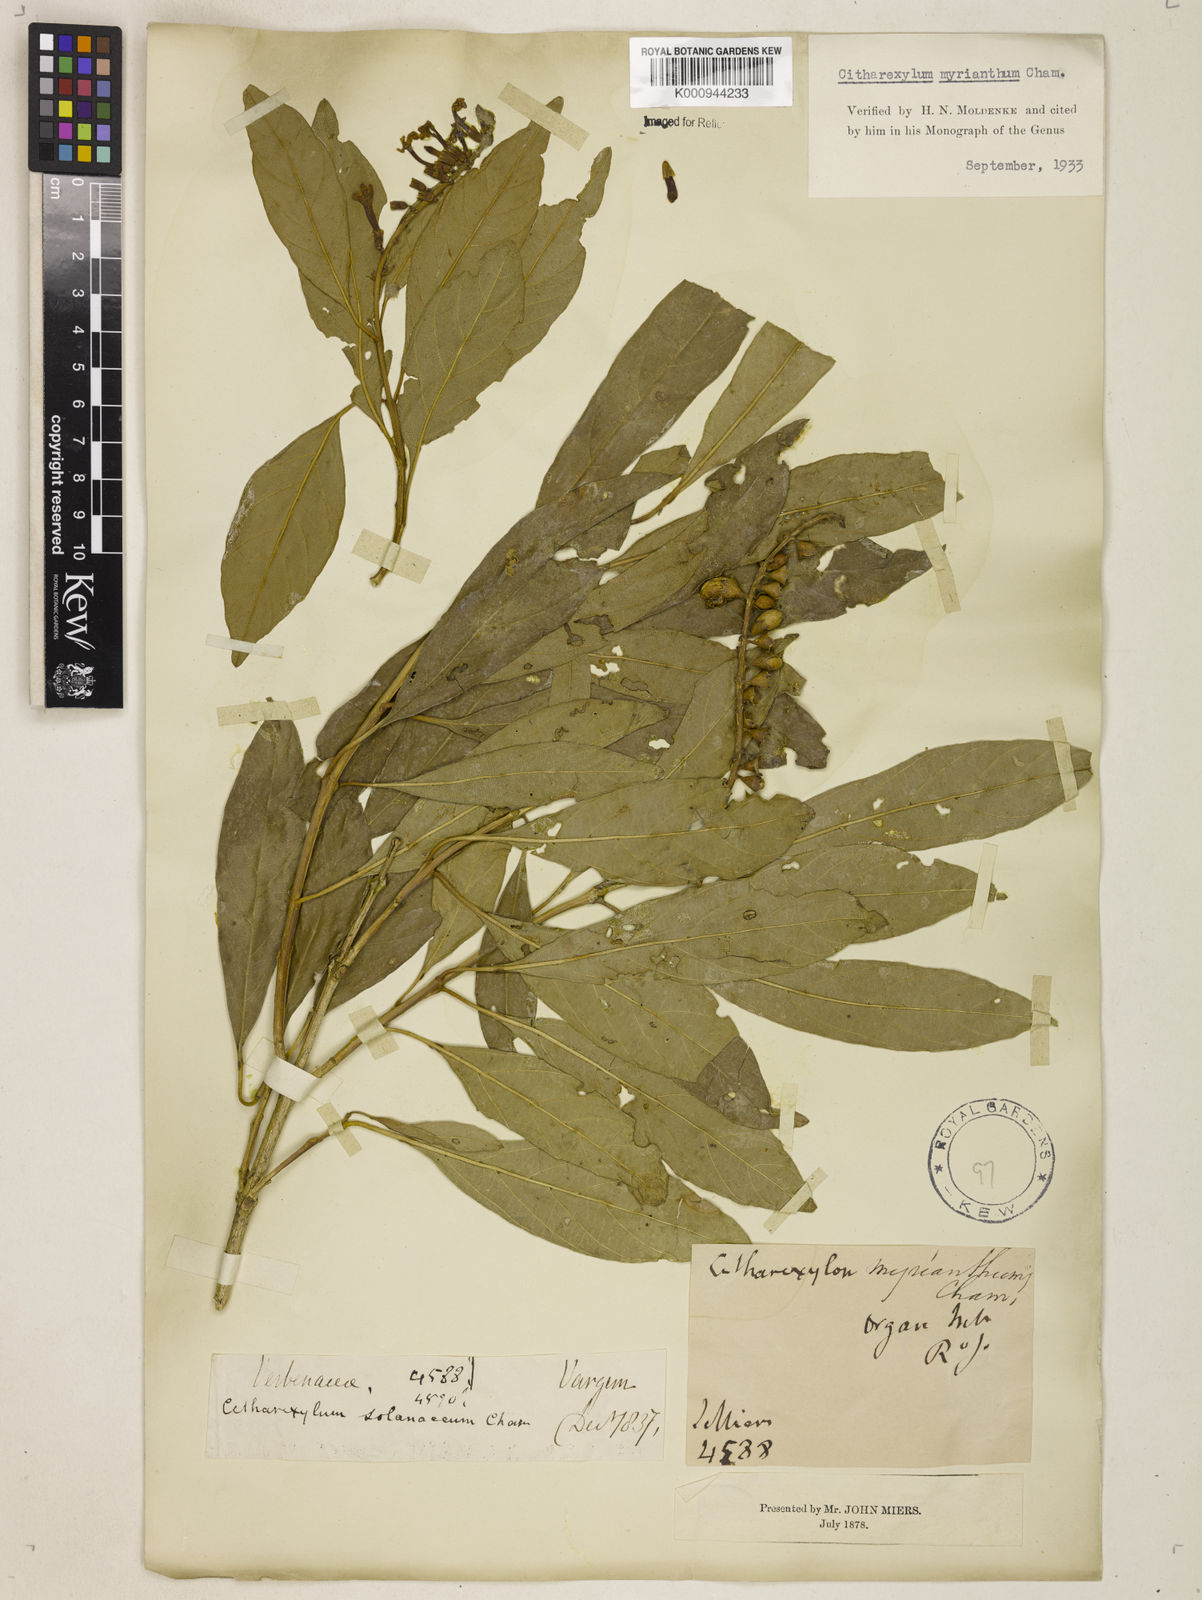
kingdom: Plantae
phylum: Tracheophyta
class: Magnoliopsida
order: Lamiales
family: Verbenaceae
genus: Citharexylum
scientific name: Citharexylum myrianthum
